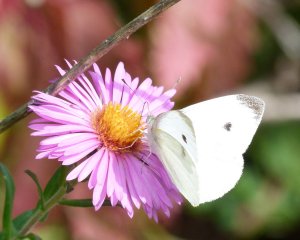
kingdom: Animalia
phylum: Arthropoda
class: Insecta
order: Lepidoptera
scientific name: Lepidoptera
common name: Butterflies
